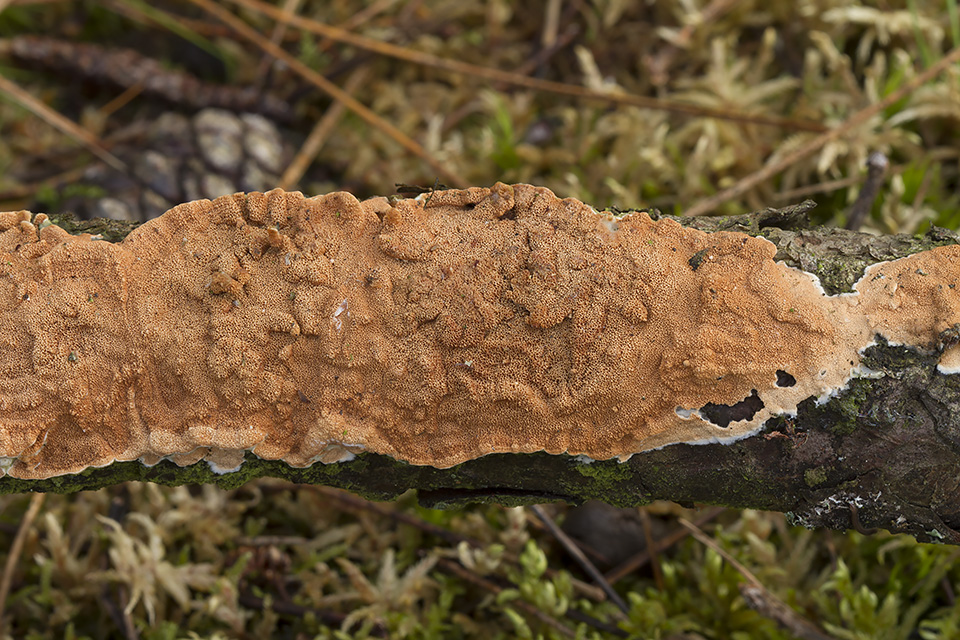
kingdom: Fungi
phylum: Basidiomycota
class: Agaricomycetes
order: Polyporales
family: Irpicaceae
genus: Meruliopsis
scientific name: Meruliopsis taxicola
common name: purpurbrun foldporesvamp
